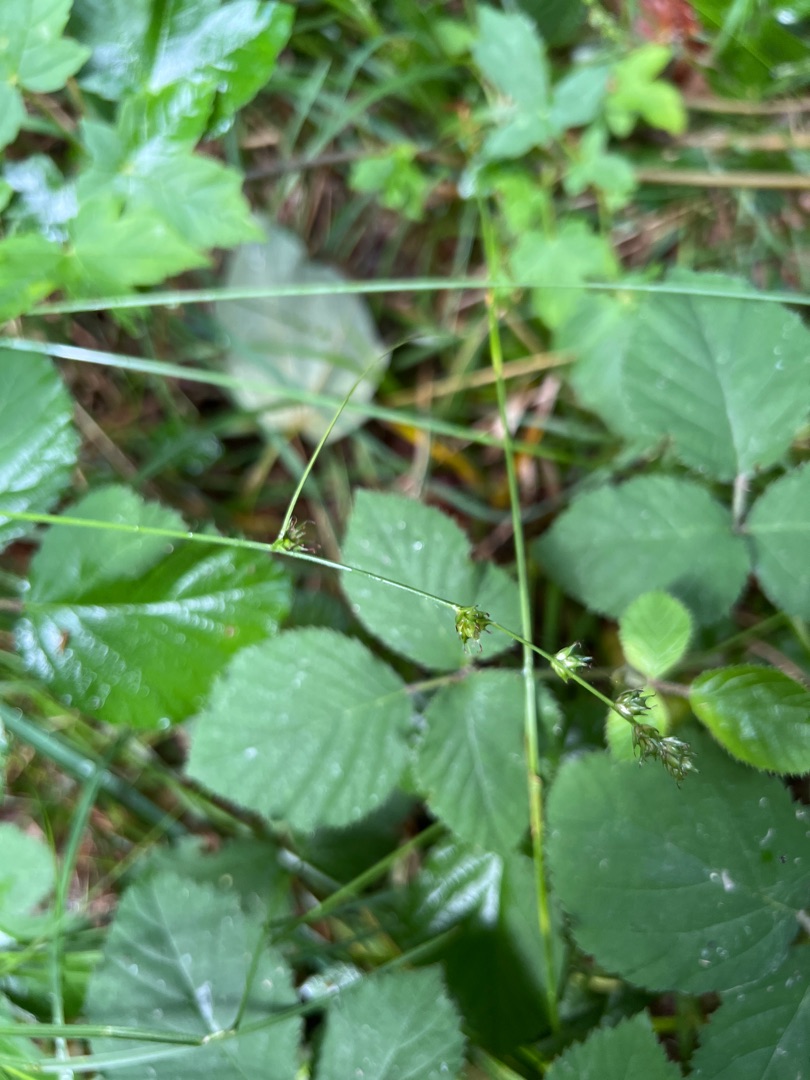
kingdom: Plantae
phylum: Tracheophyta
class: Liliopsida
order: Poales
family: Cyperaceae
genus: Carex
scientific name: Carex leersii
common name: Mellembrudt star (underart)
